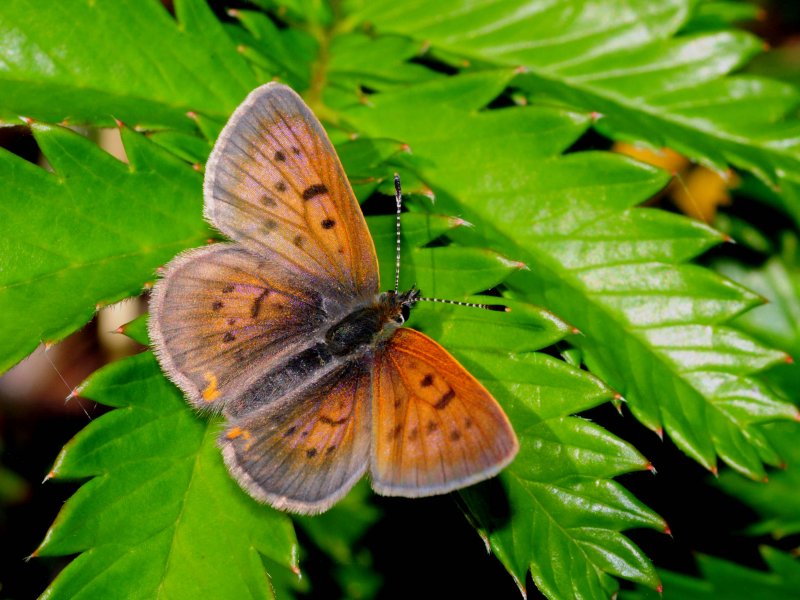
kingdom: Animalia
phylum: Arthropoda
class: Insecta
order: Lepidoptera
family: Lycaenidae
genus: Epidemia
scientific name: Epidemia dorcas
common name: Dorcas Copper
